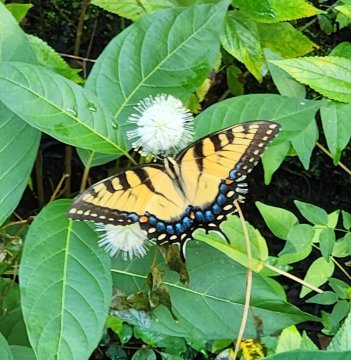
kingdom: Animalia
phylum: Arthropoda
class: Insecta
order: Lepidoptera
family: Papilionidae
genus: Pterourus
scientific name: Pterourus glaucus
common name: Eastern Tiger Swallowtail
